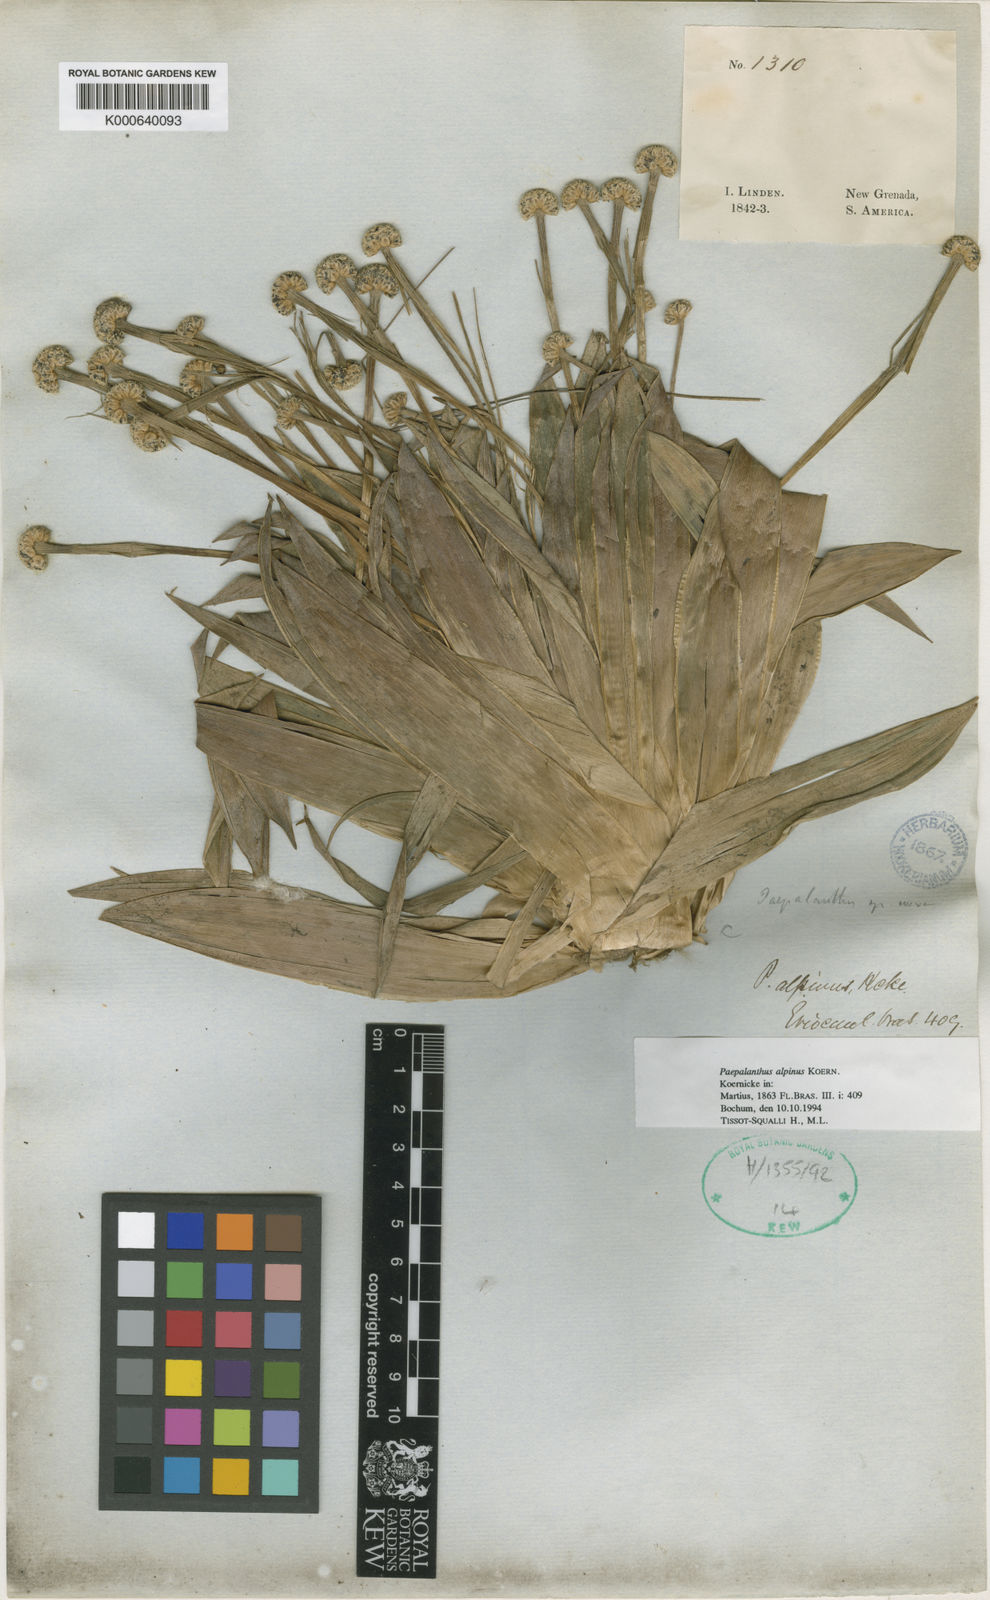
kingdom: Plantae
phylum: Tracheophyta
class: Liliopsida
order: Poales
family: Eriocaulaceae
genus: Paepalanthus
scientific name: Paepalanthus
